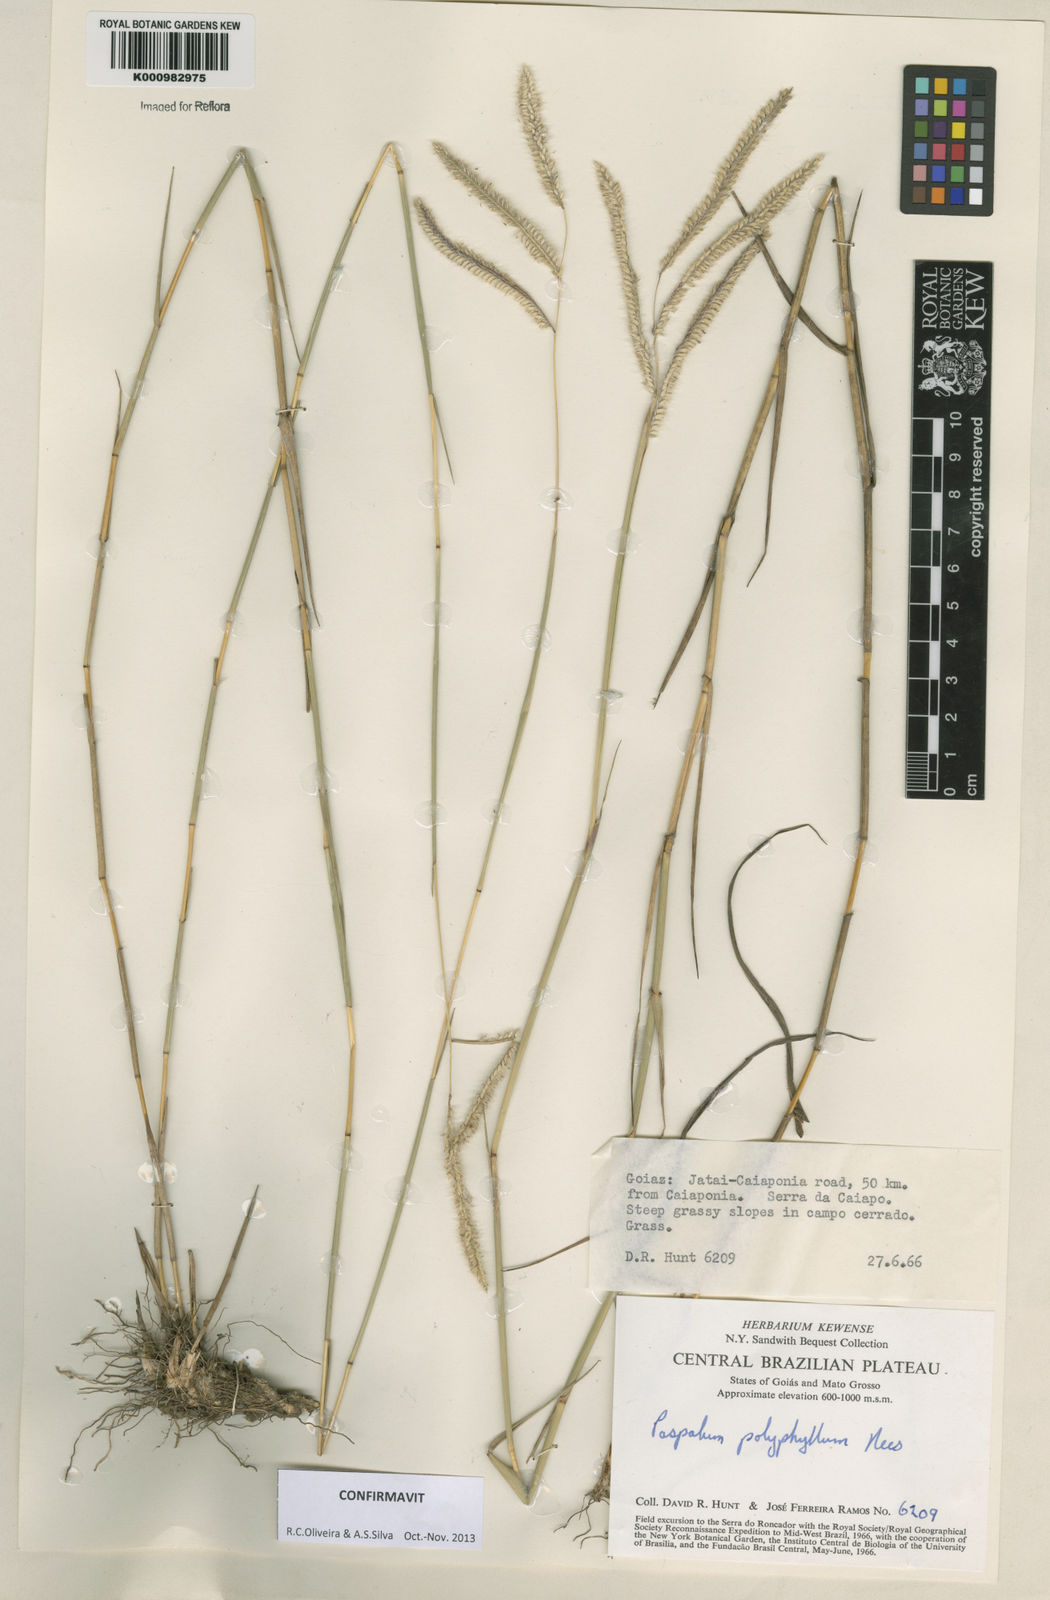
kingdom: Plantae
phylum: Tracheophyta
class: Liliopsida
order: Poales
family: Poaceae
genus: Paspalum
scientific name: Paspalum
